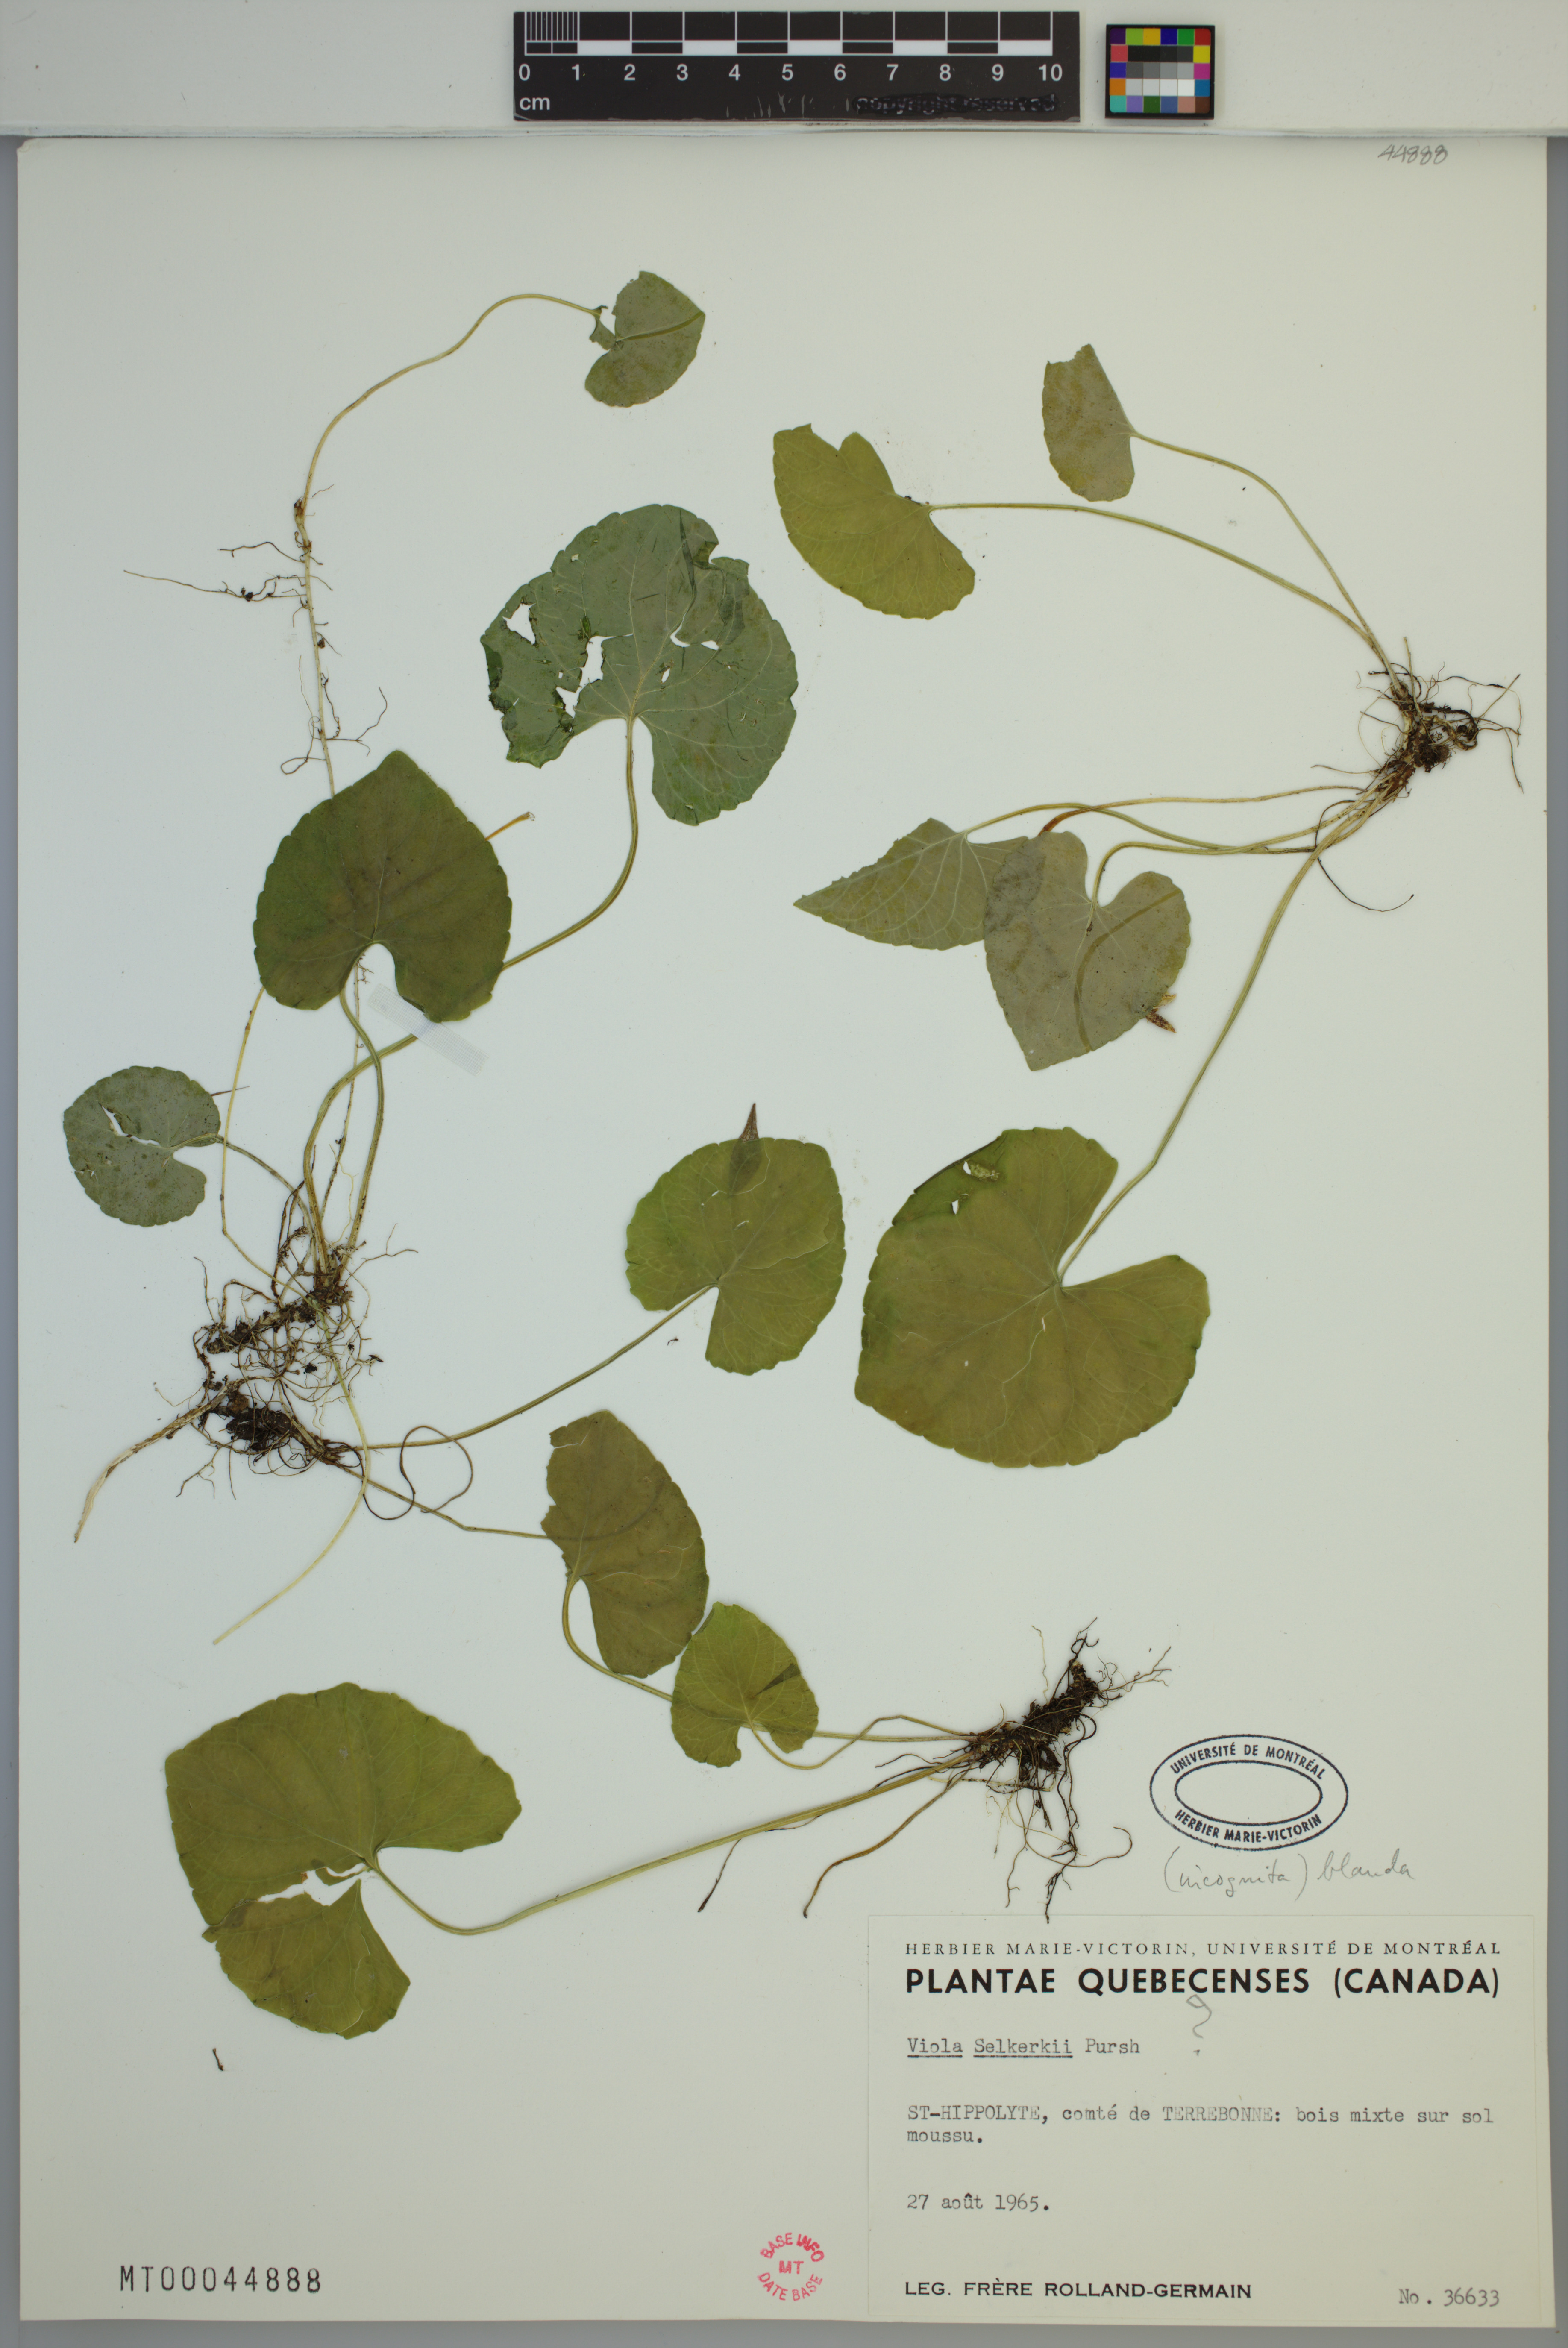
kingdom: Plantae
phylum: Tracheophyta
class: Magnoliopsida
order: Malpighiales
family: Violaceae
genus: Viola
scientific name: Viola blanda
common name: Sweet white violet
